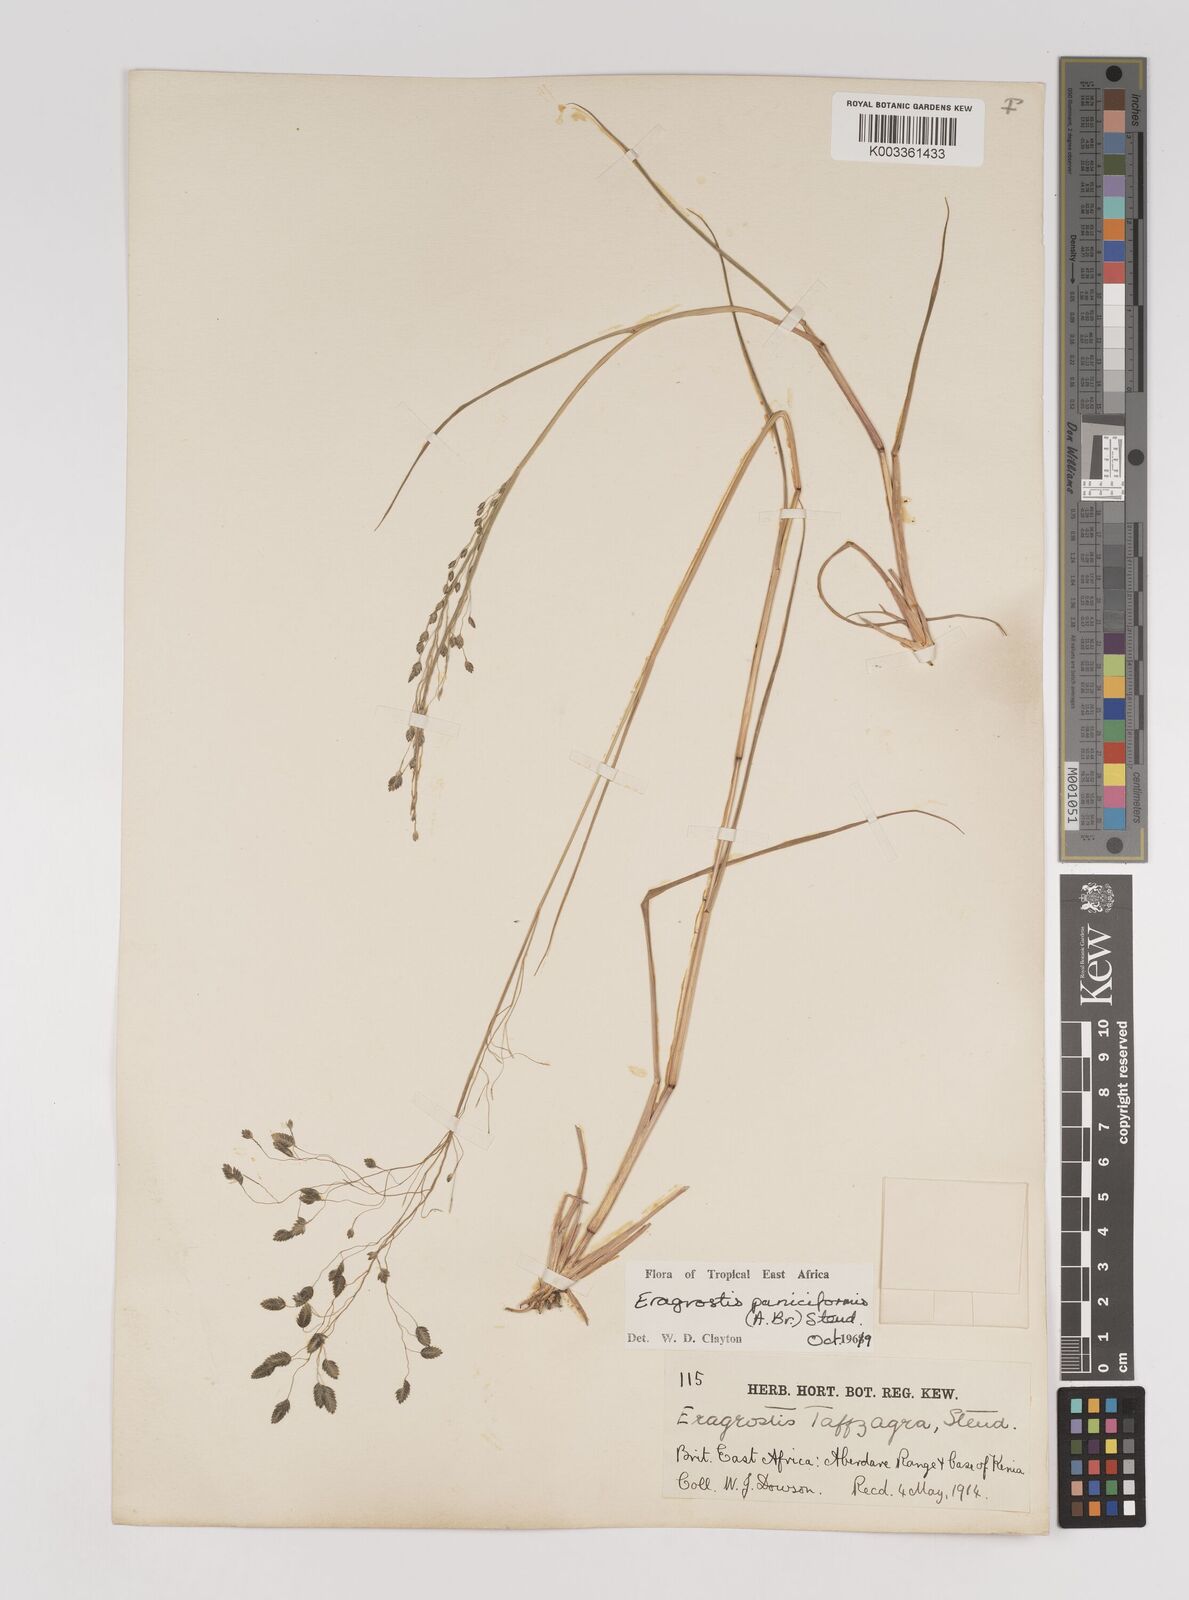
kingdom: Plantae
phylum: Tracheophyta
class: Liliopsida
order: Poales
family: Poaceae
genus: Eragrostis
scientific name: Eragrostis paniciformis
